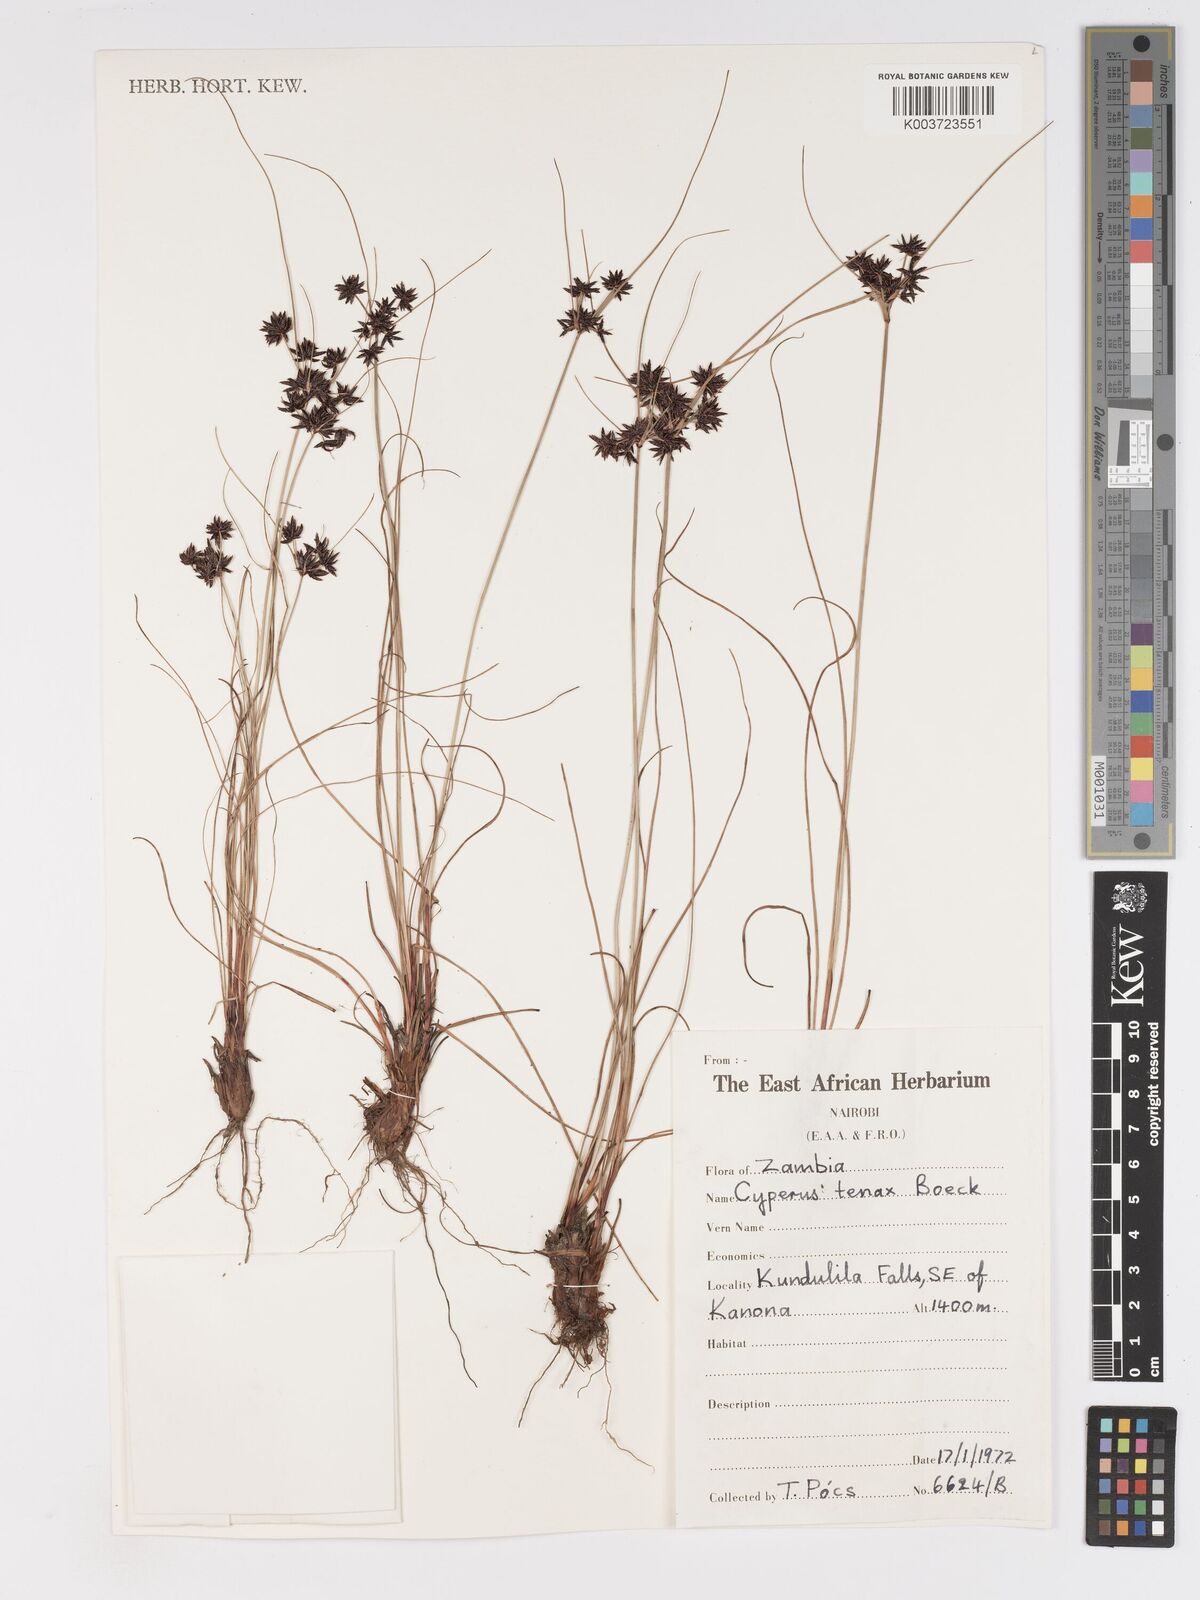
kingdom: Plantae
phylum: Tracheophyta
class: Liliopsida
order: Poales
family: Cyperaceae
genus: Cyperus
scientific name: Cyperus tenax
